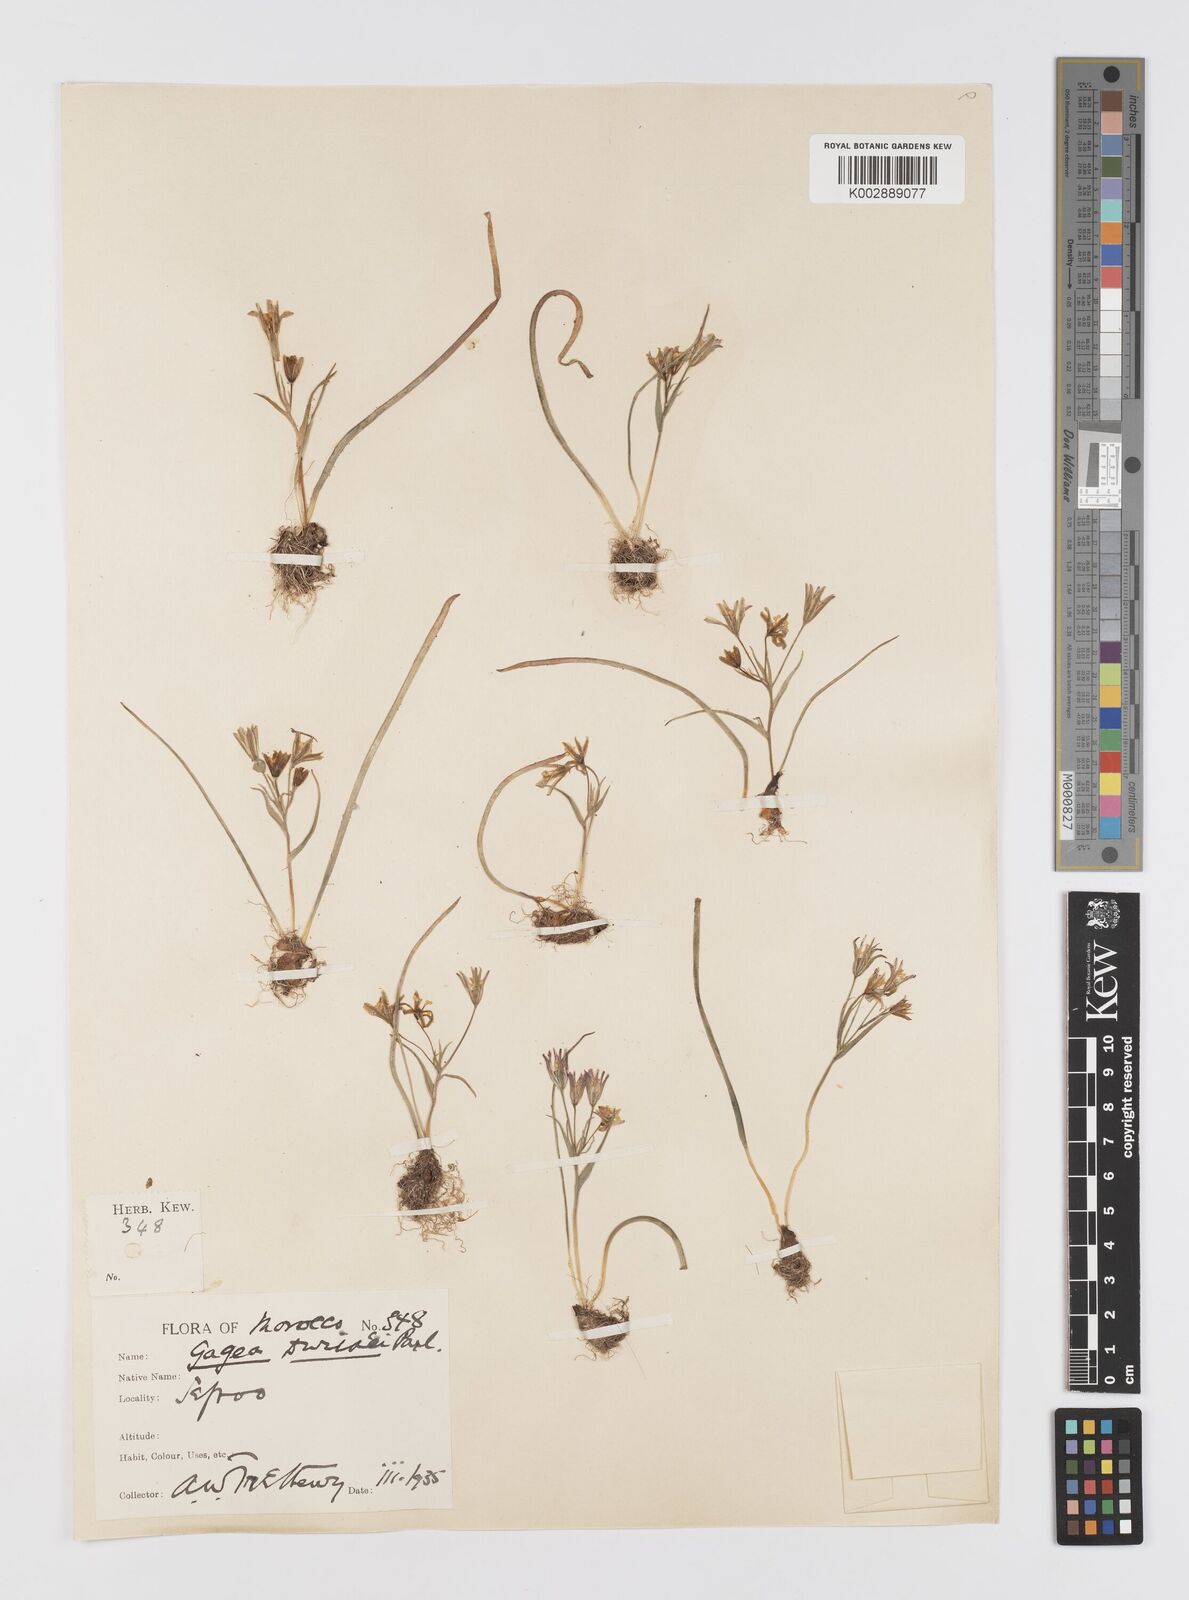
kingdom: Plantae
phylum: Tracheophyta
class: Liliopsida
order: Liliales
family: Liliaceae
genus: Gagea
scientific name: Gagea algeriensis
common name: Algerian gagea
